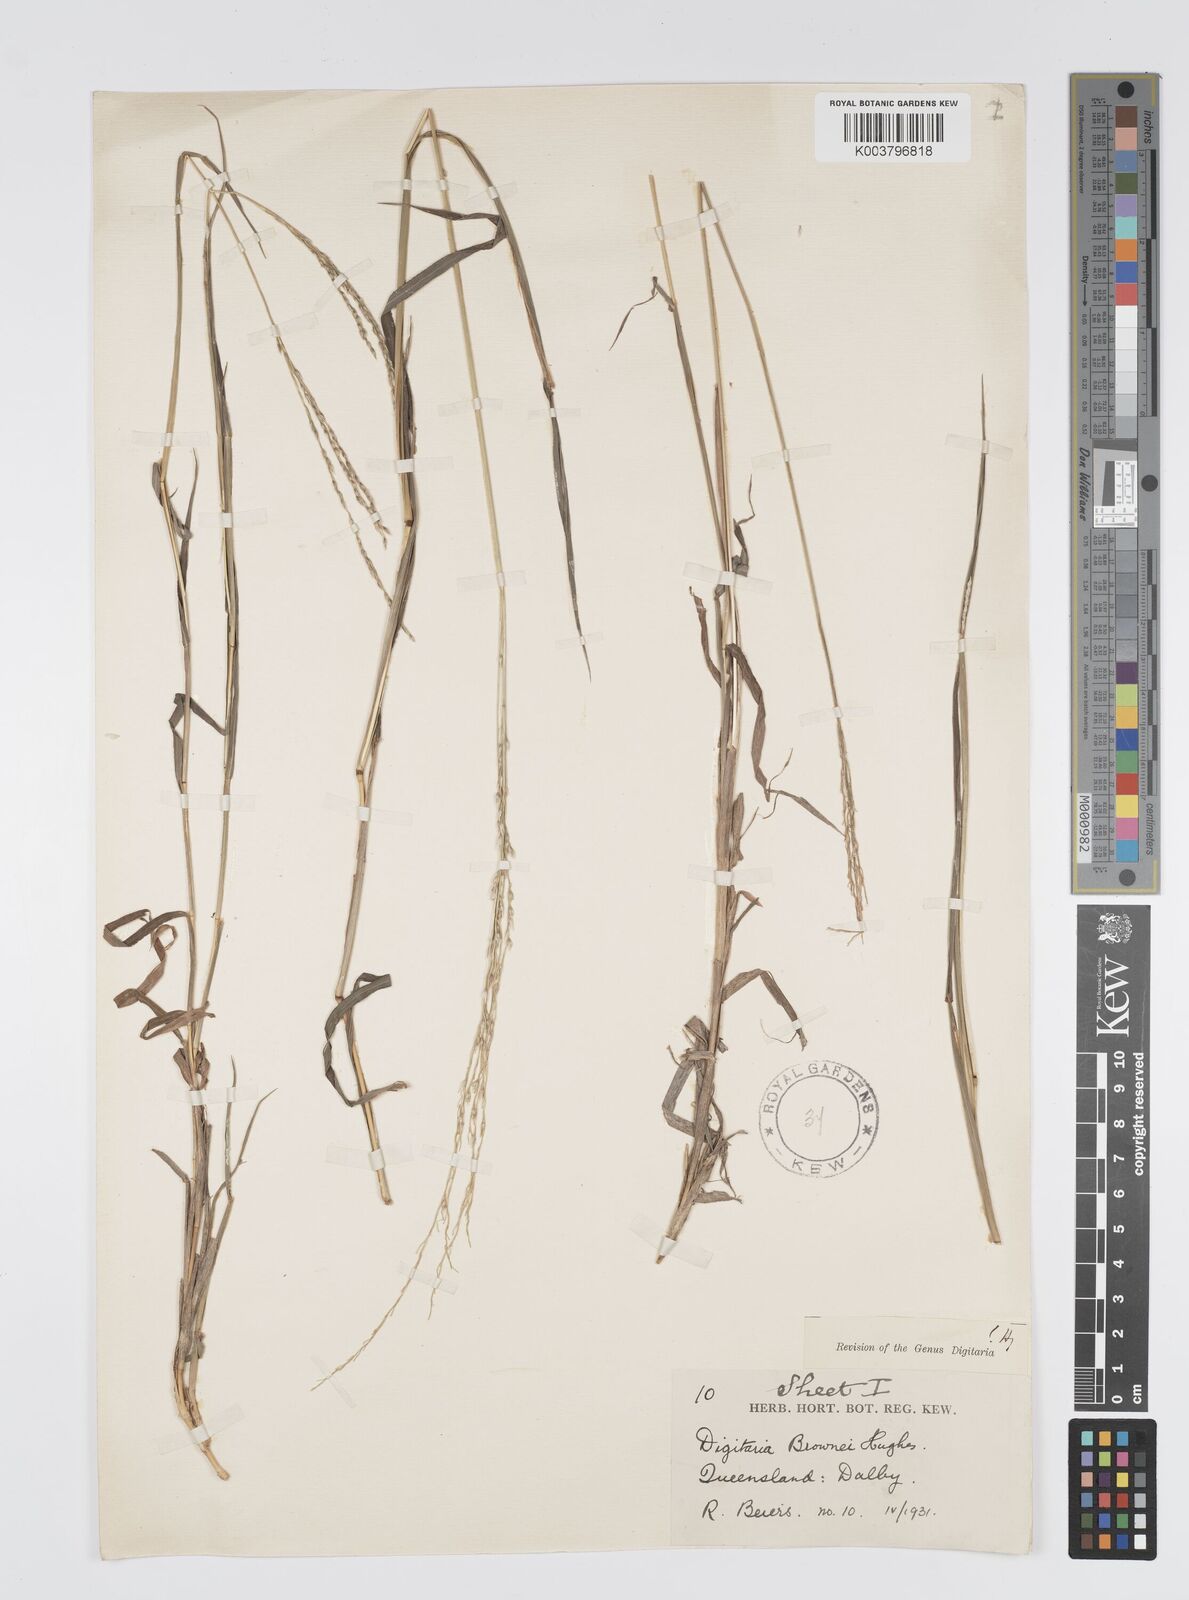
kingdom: Plantae
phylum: Tracheophyta
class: Liliopsida
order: Poales
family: Poaceae
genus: Digitaria
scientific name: Digitaria brownii
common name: Cotton grass
